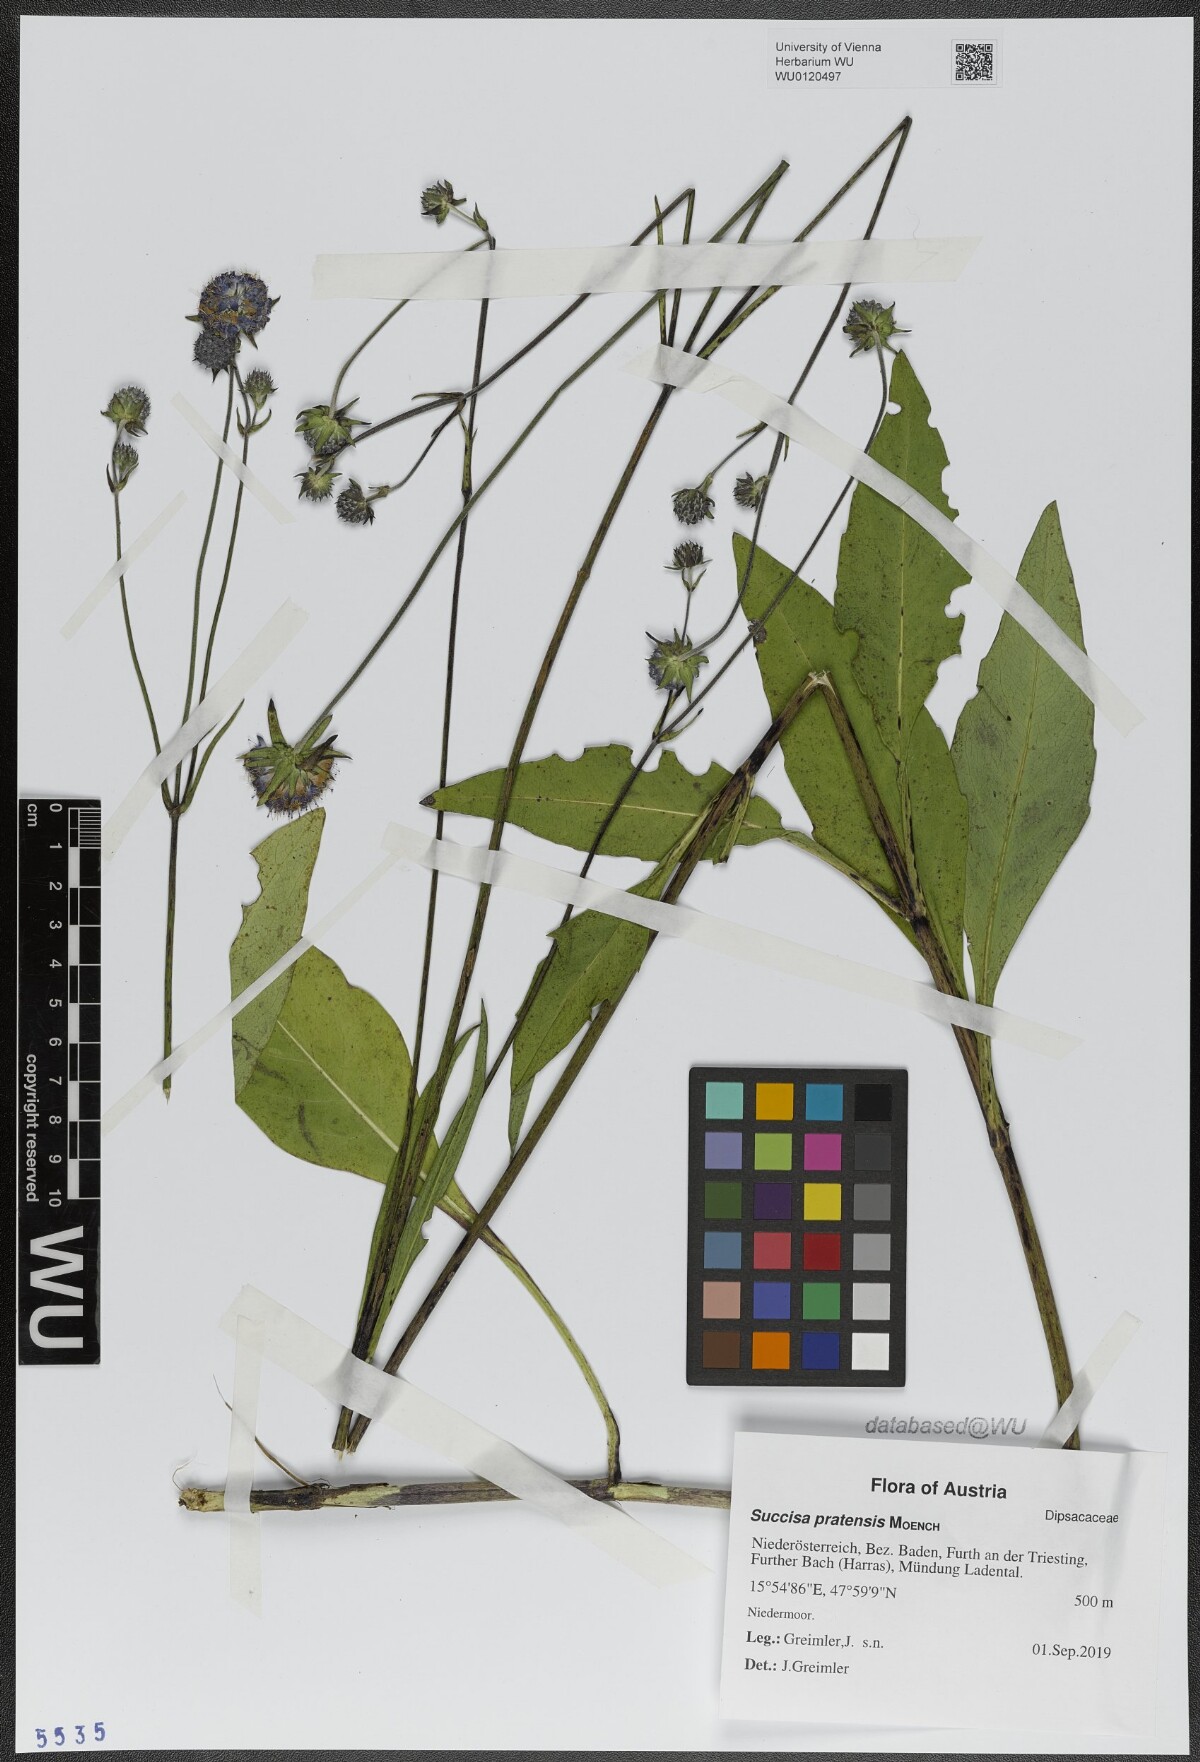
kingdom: Plantae
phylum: Tracheophyta
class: Magnoliopsida
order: Dipsacales
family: Caprifoliaceae
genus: Succisa
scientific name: Succisa pratensis
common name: Devil's-bit
